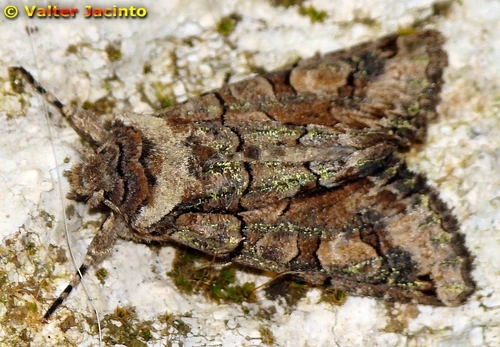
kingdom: Animalia
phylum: Arthropoda
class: Insecta
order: Lepidoptera
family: Noctuidae
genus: Allophyes
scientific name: Allophyes alfaroi
